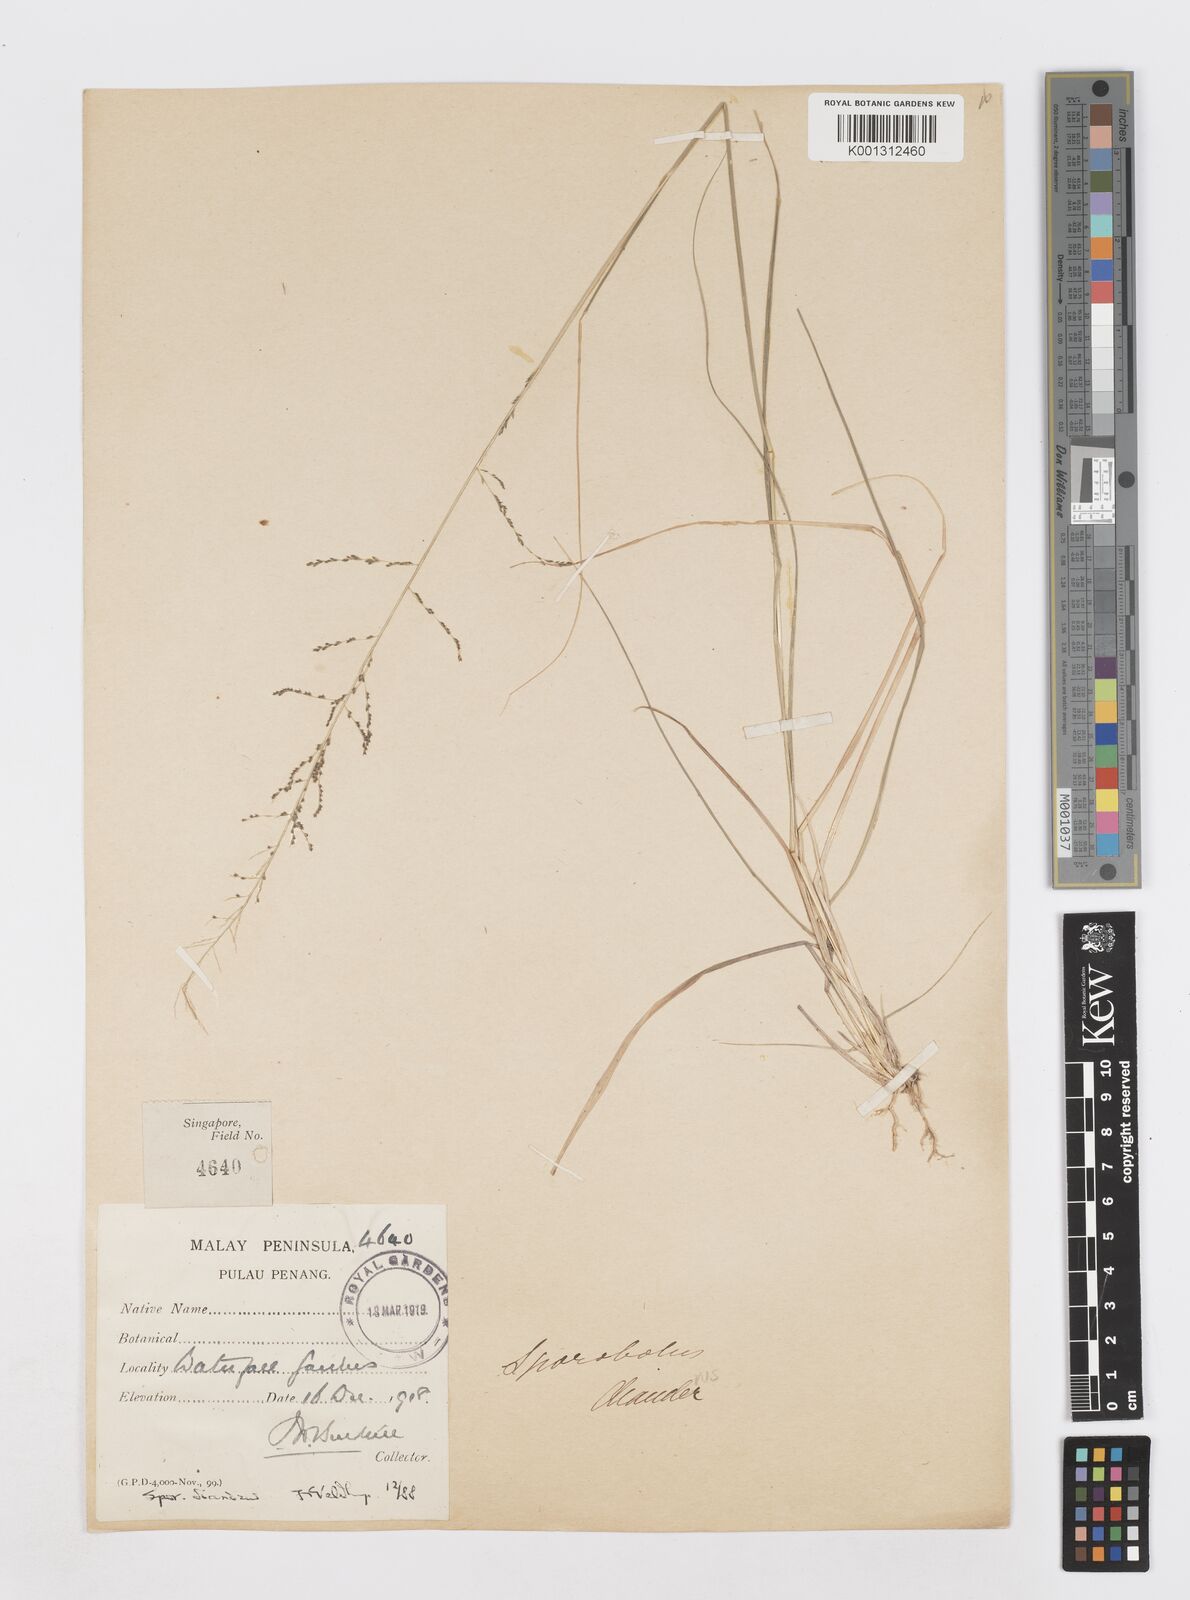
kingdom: Plantae
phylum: Tracheophyta
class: Liliopsida
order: Poales
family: Poaceae
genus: Sporobolus
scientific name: Sporobolus diandrus
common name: Tussock dropseed
